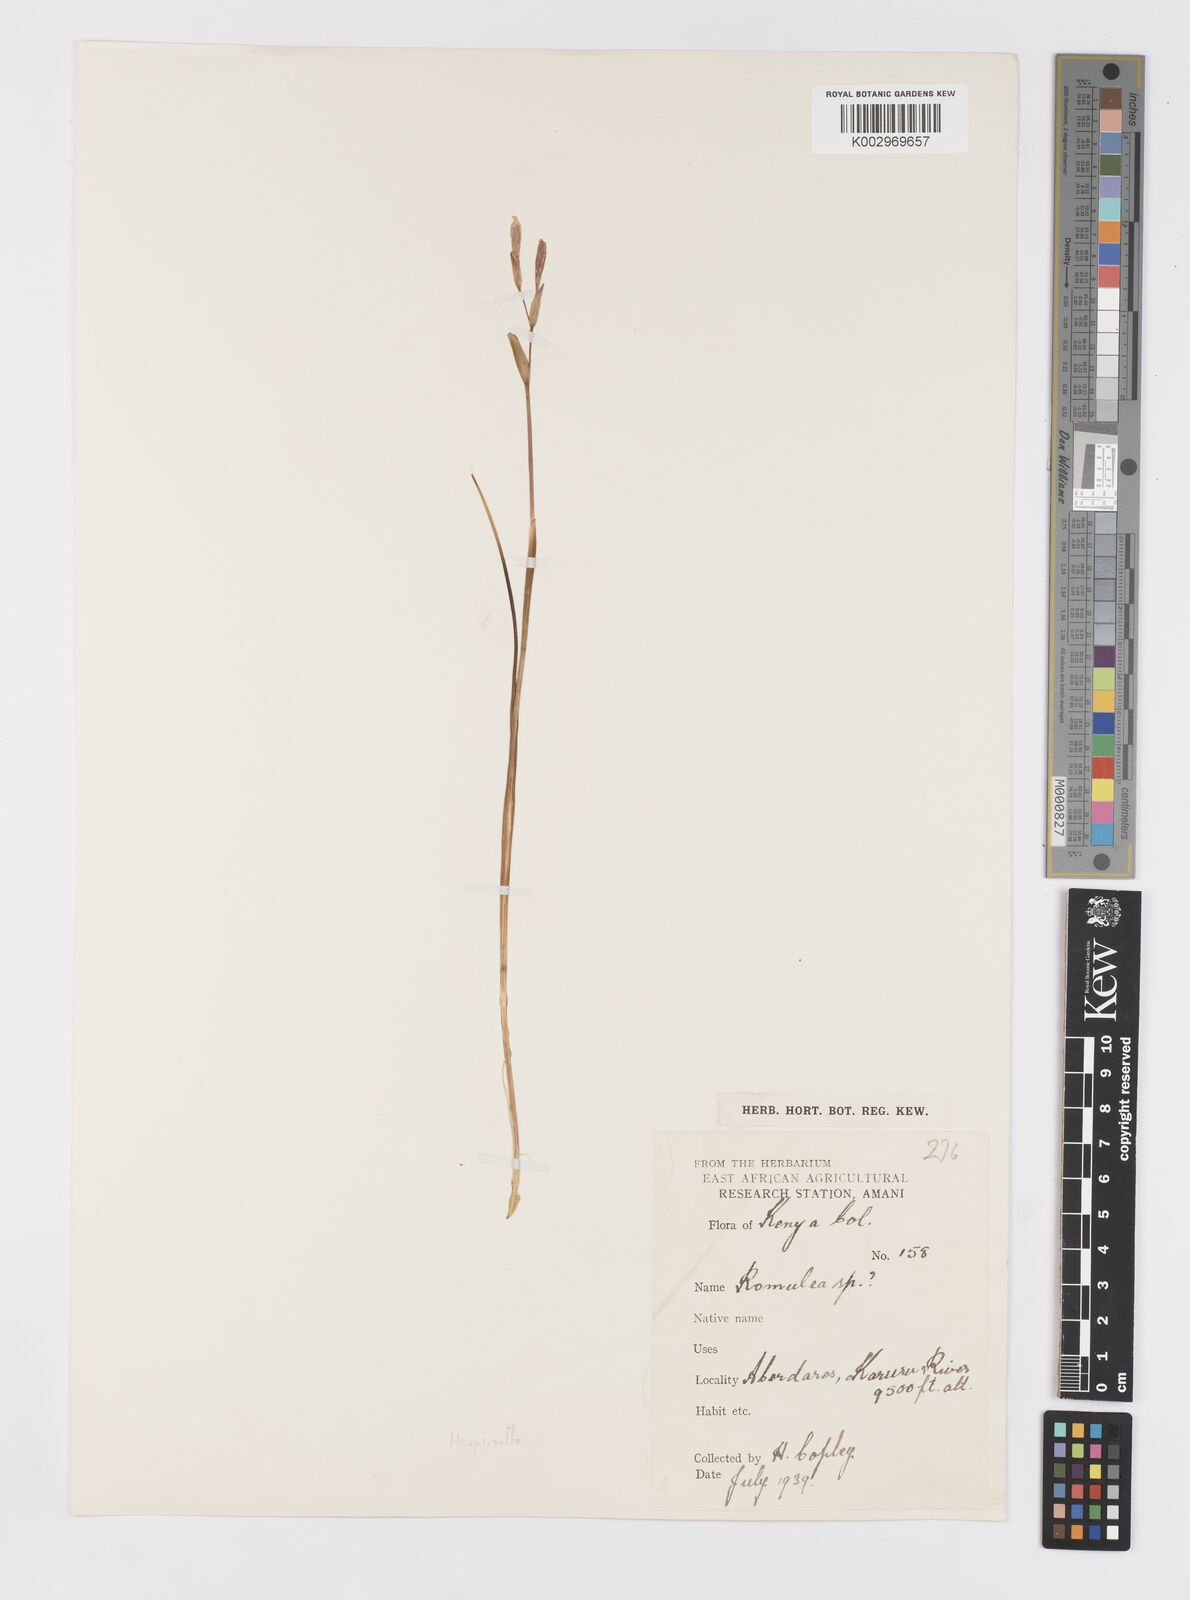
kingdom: Plantae
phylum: Tracheophyta
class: Liliopsida
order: Asparagales
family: Iridaceae
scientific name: Iridaceae
